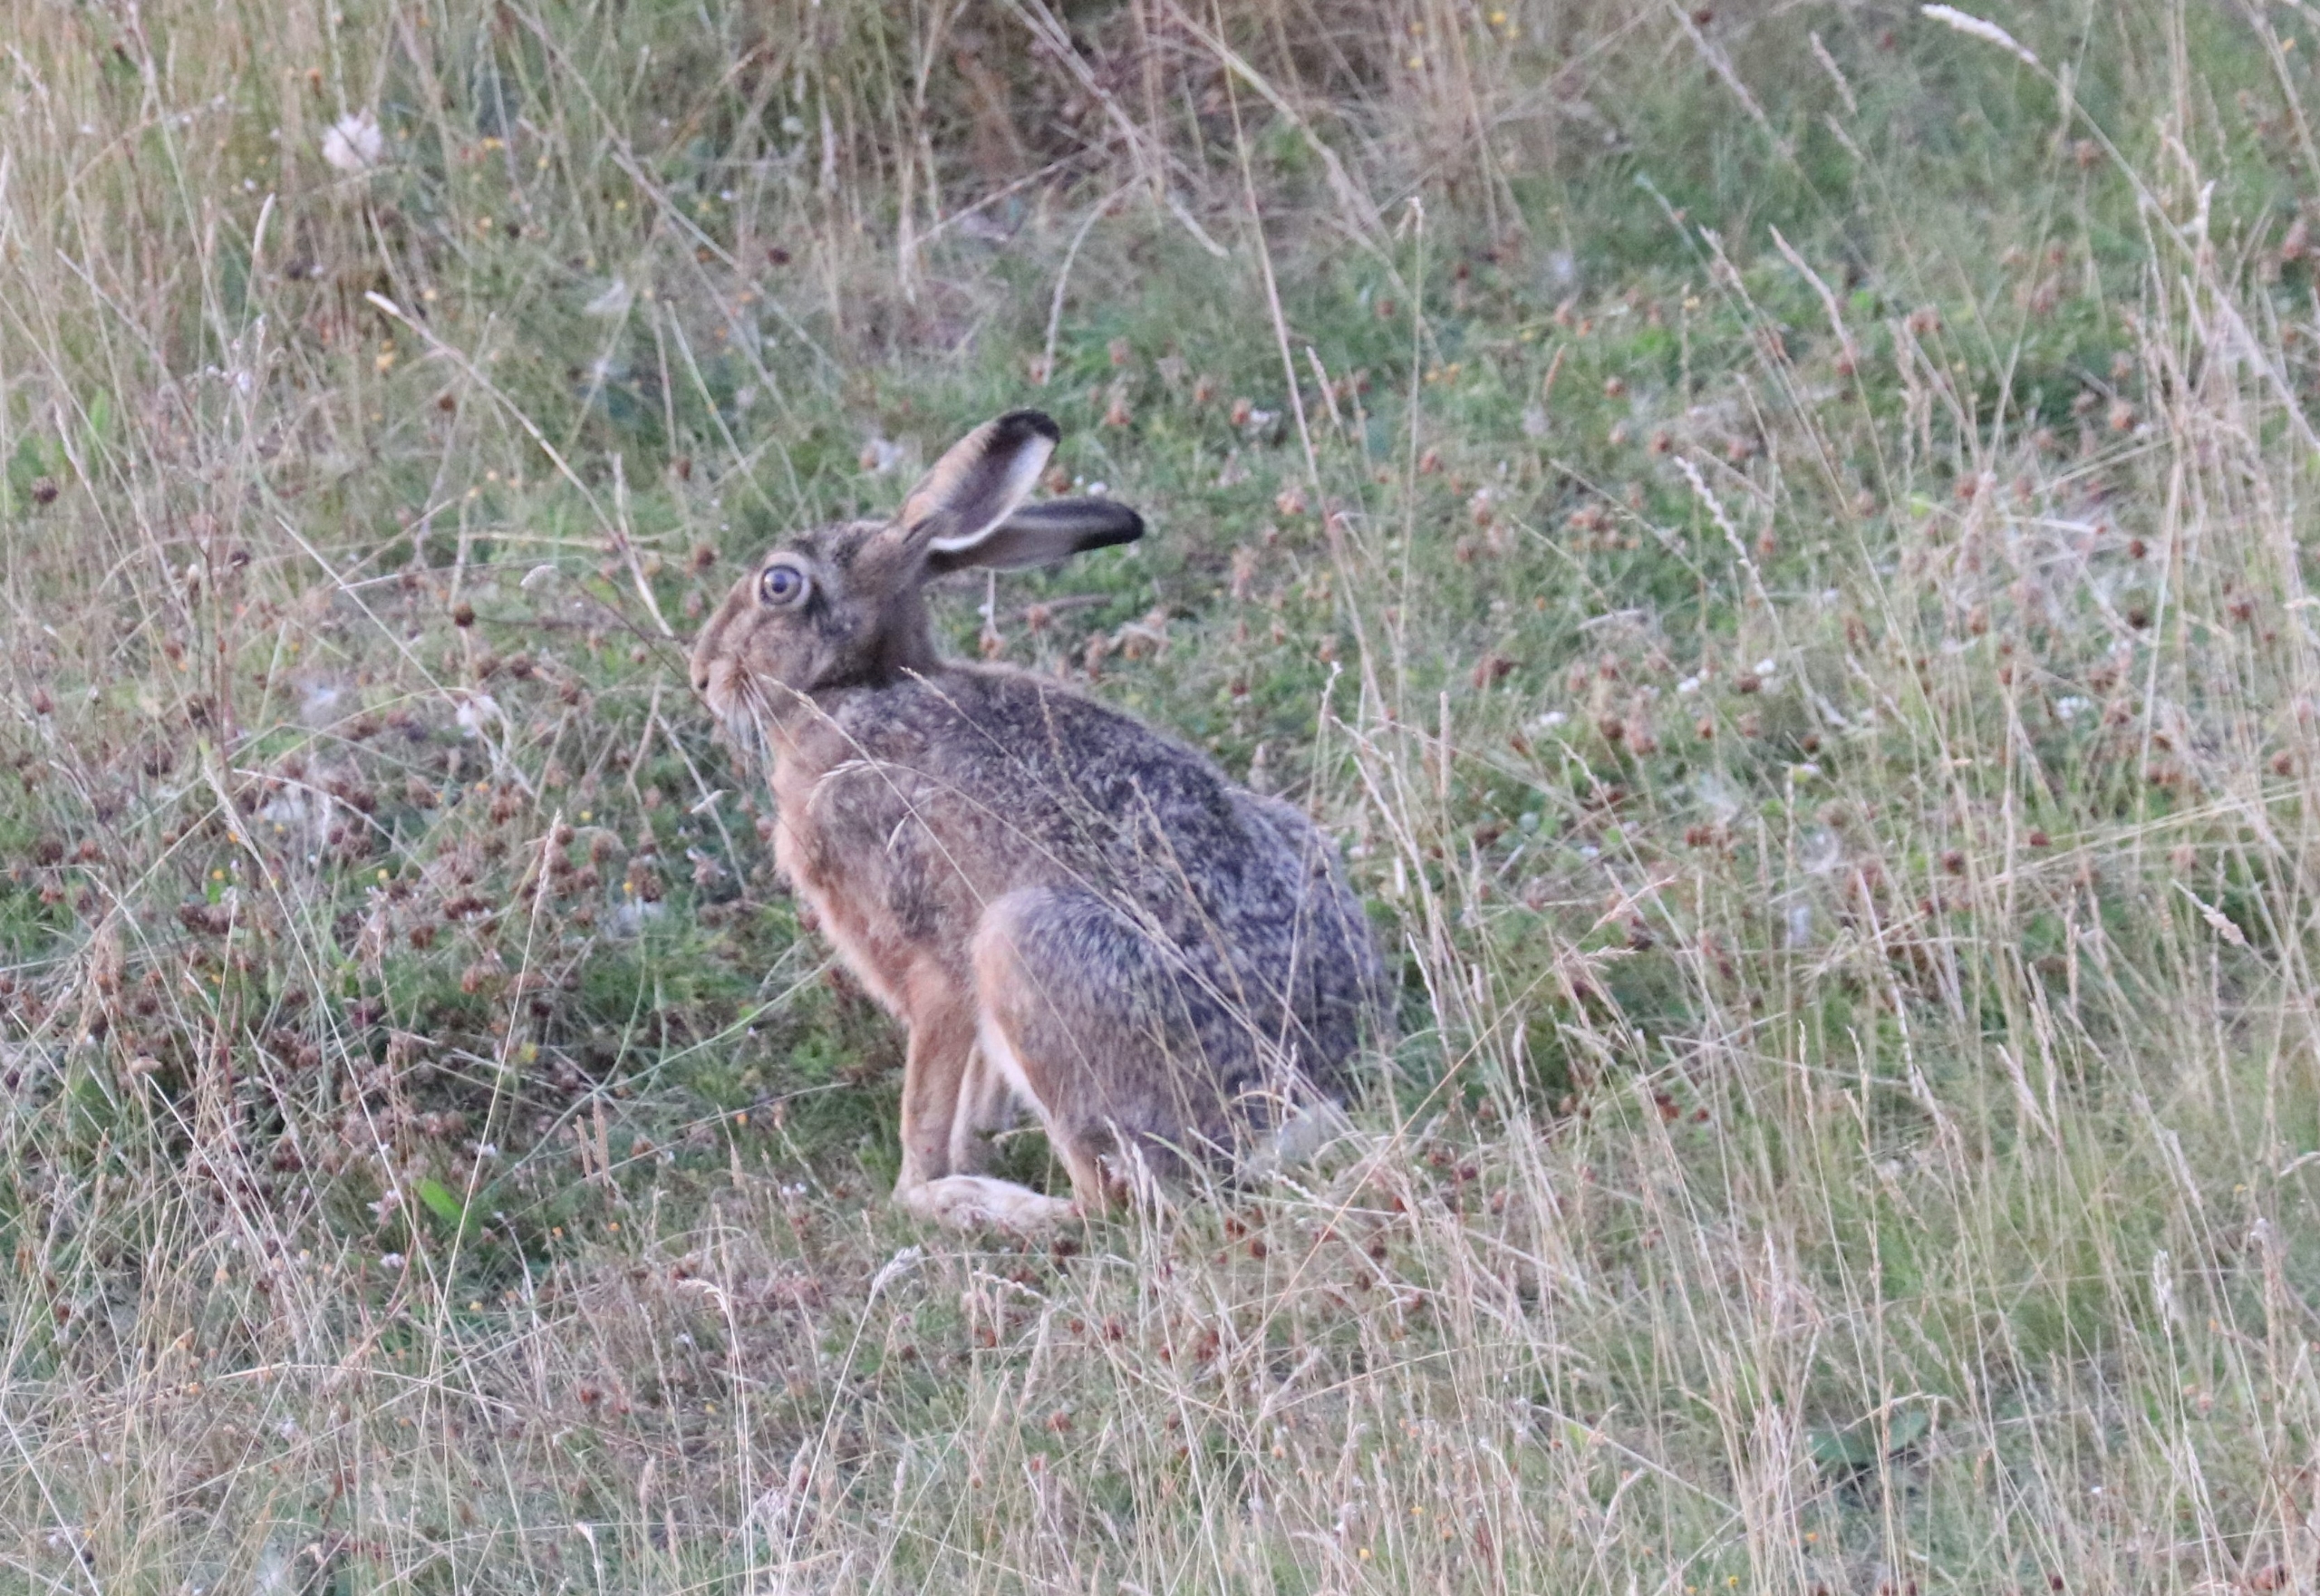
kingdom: Animalia
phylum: Chordata
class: Mammalia
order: Lagomorpha
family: Leporidae
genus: Lepus
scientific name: Lepus europaeus
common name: Hare
